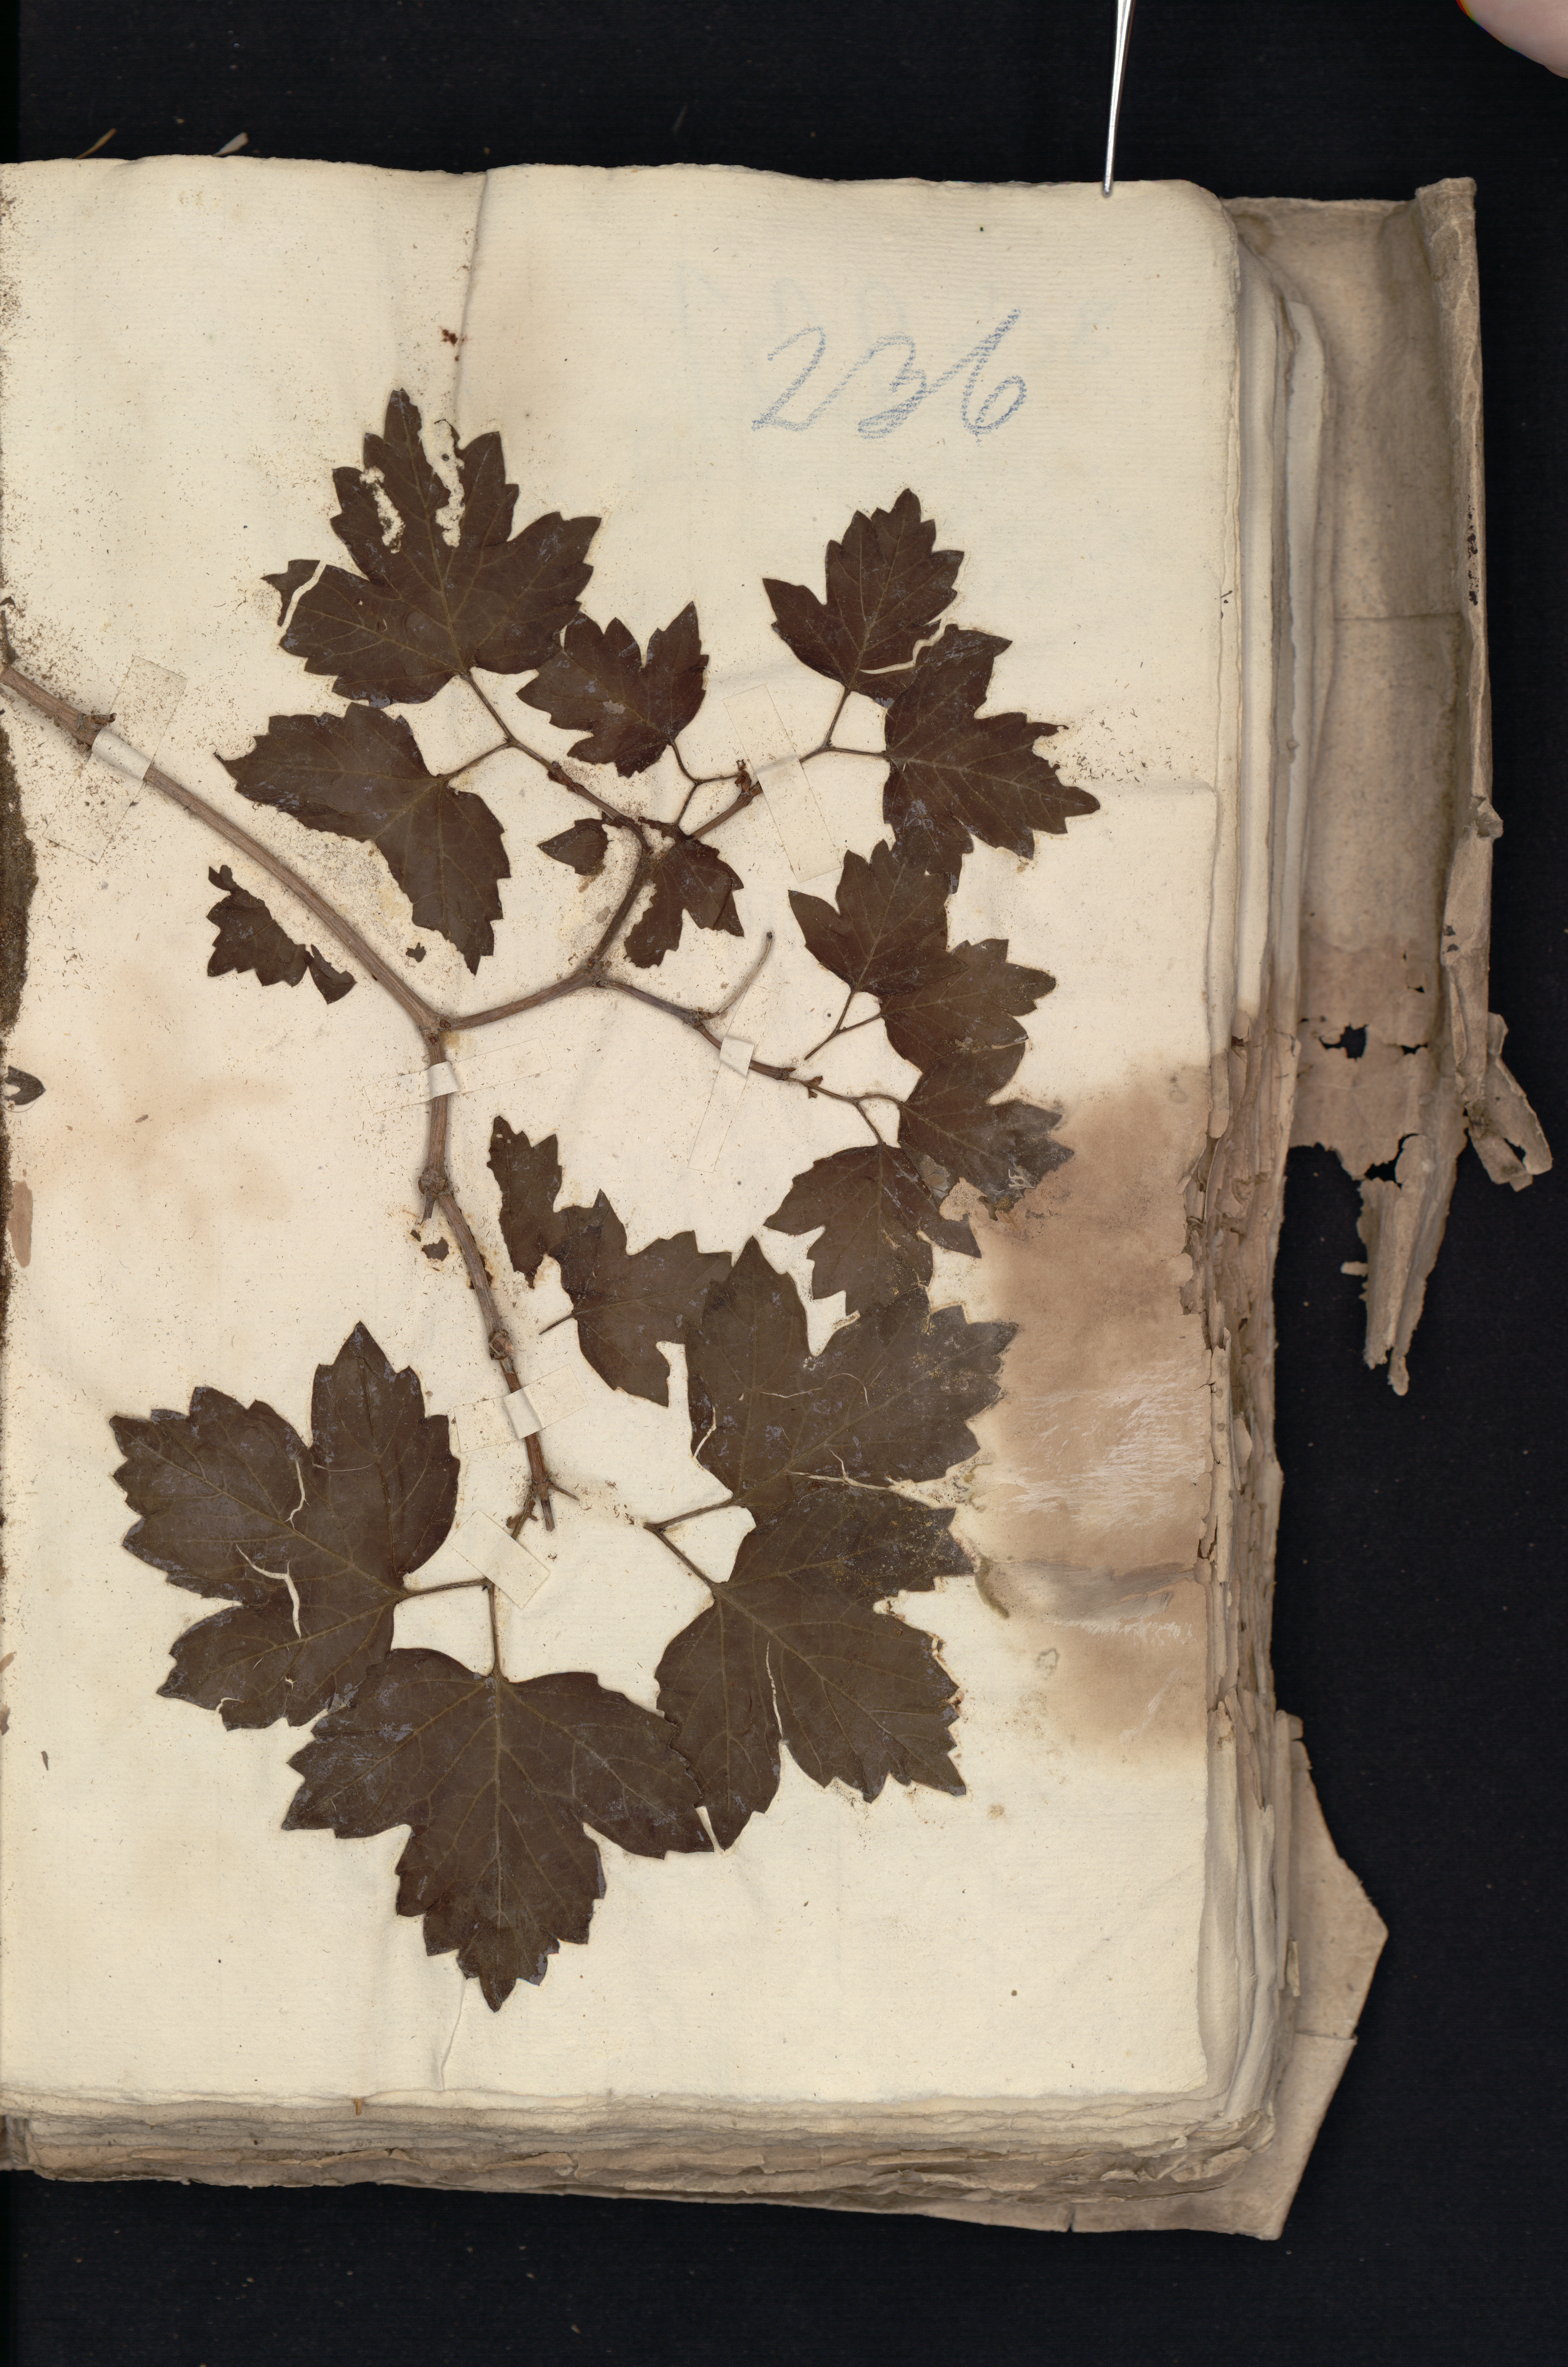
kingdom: Plantae
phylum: Tracheophyta
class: Magnoliopsida
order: Dipsacales
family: Viburnaceae
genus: Viburnum
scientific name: Viburnum opulus
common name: Guelder-rose
